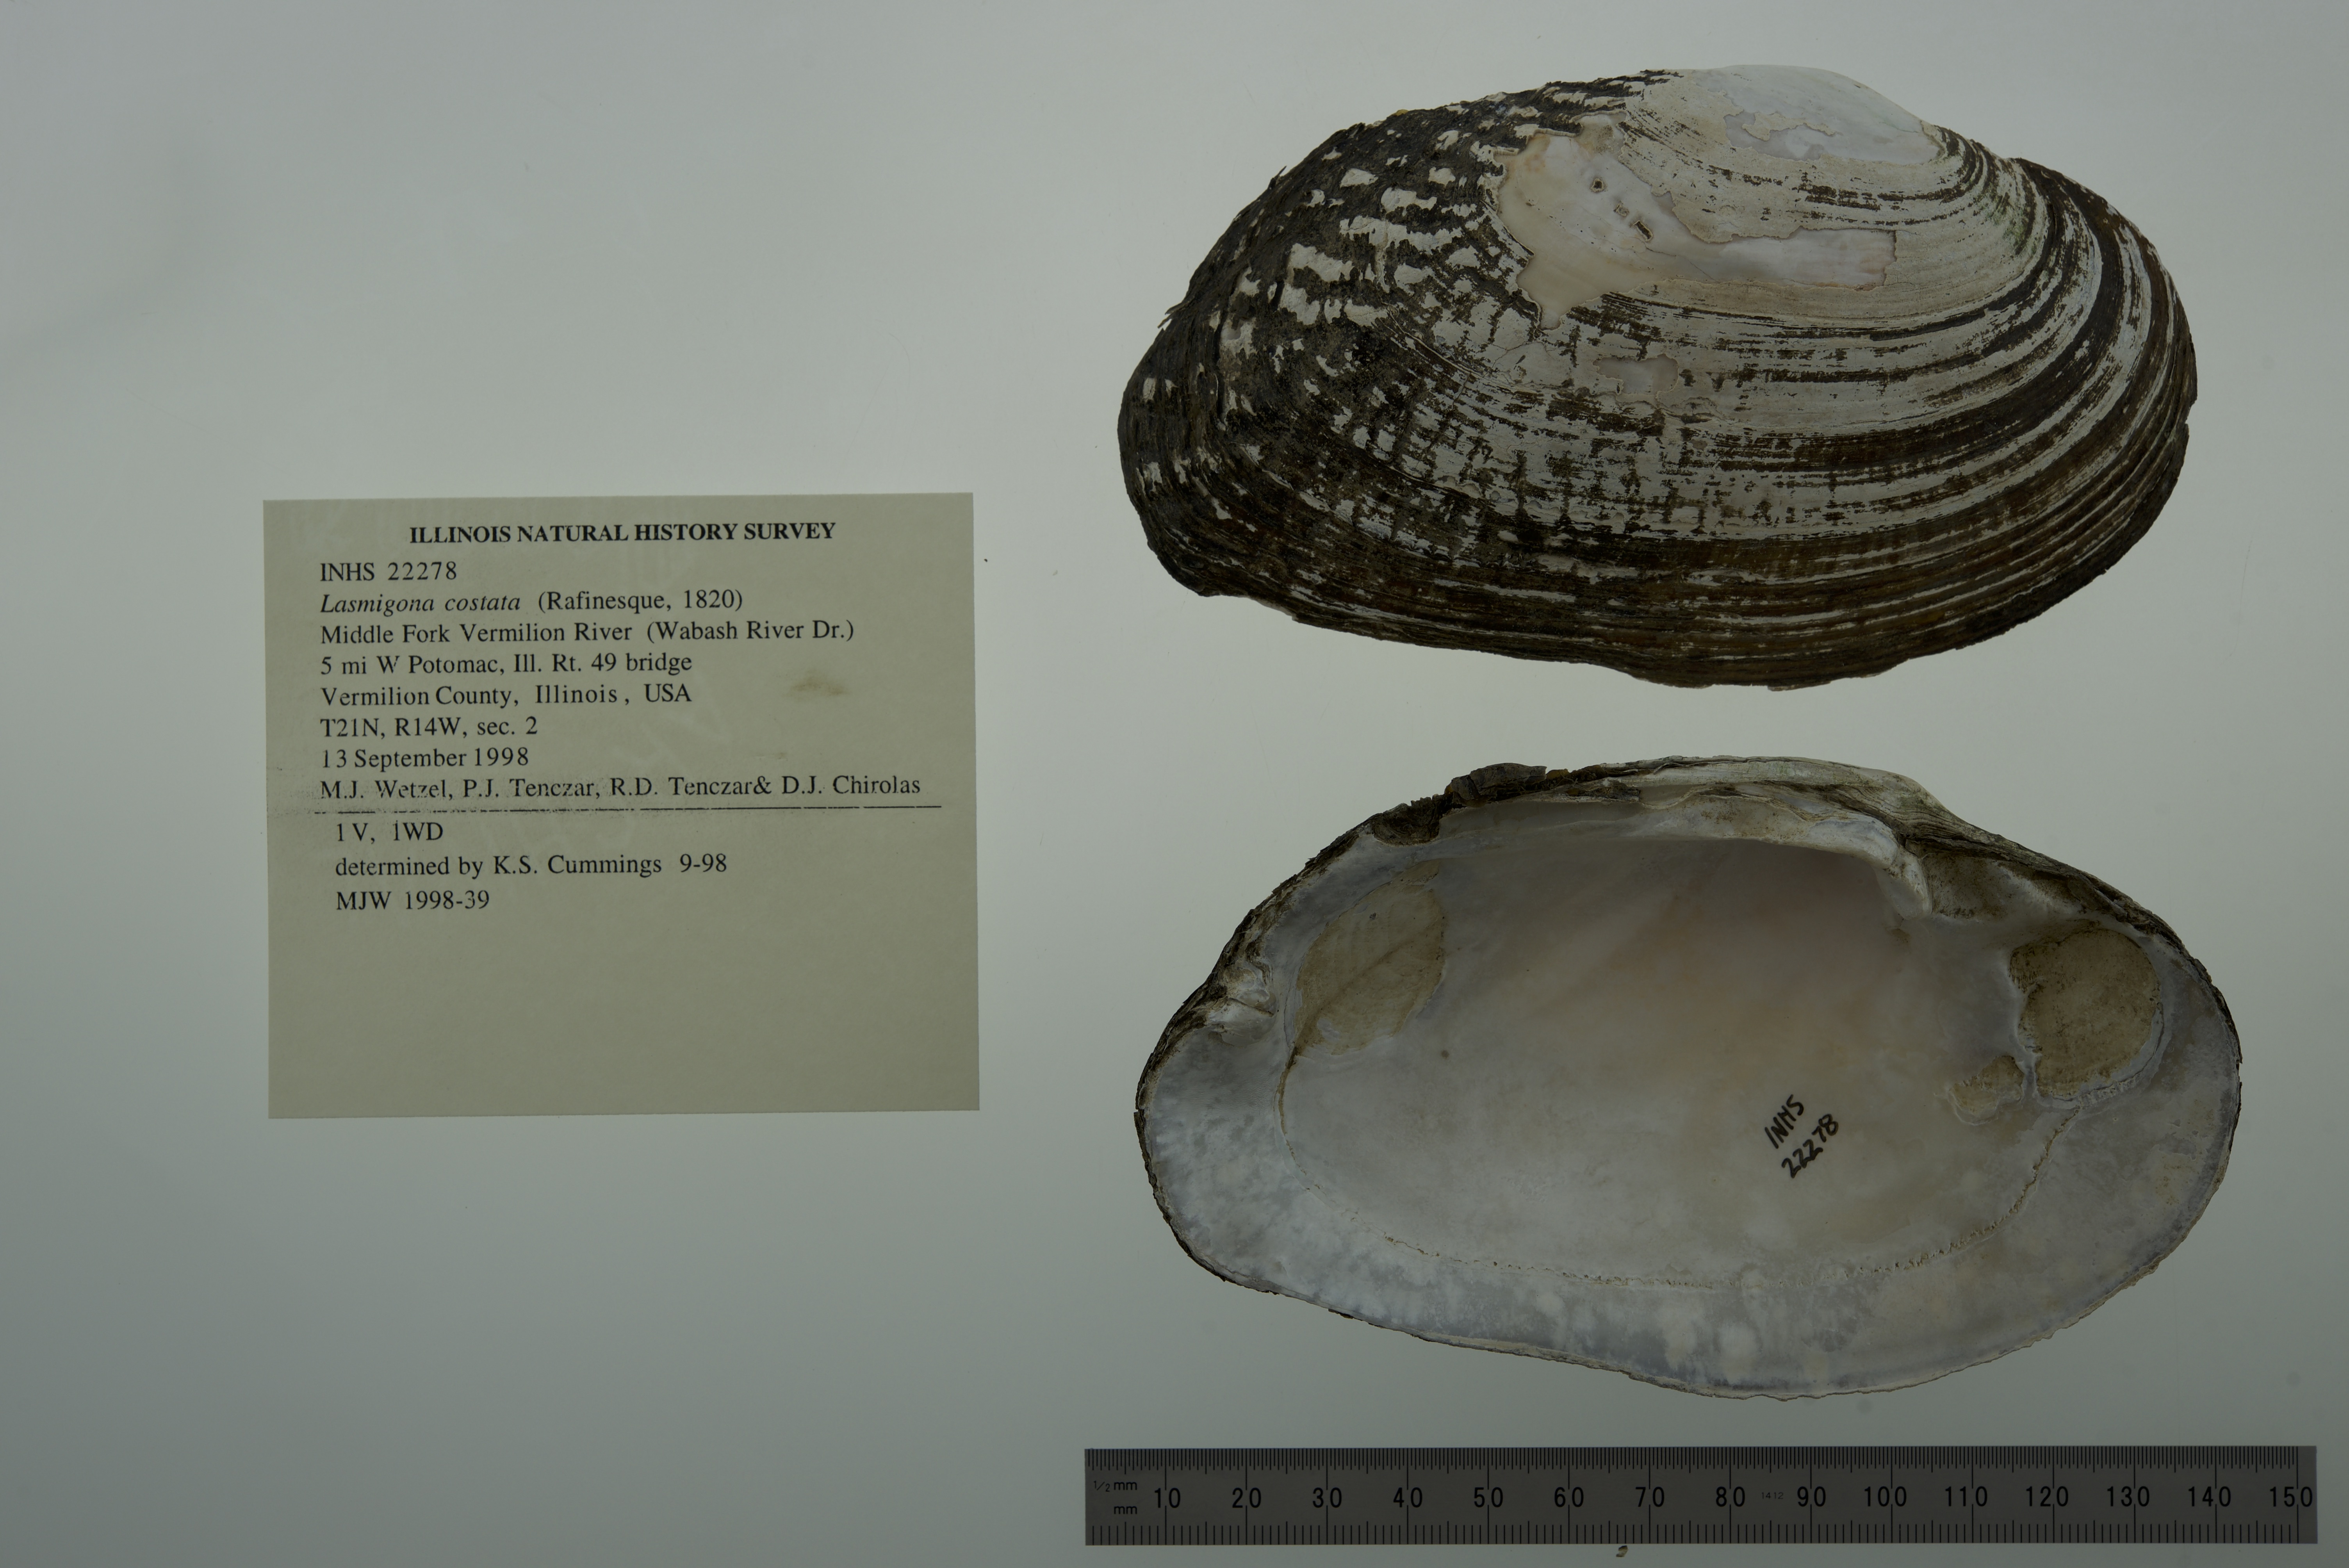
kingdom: Animalia
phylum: Mollusca
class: Bivalvia
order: Unionida
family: Unionidae
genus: Lasmigona
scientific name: Lasmigona costata
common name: Flutedshell
